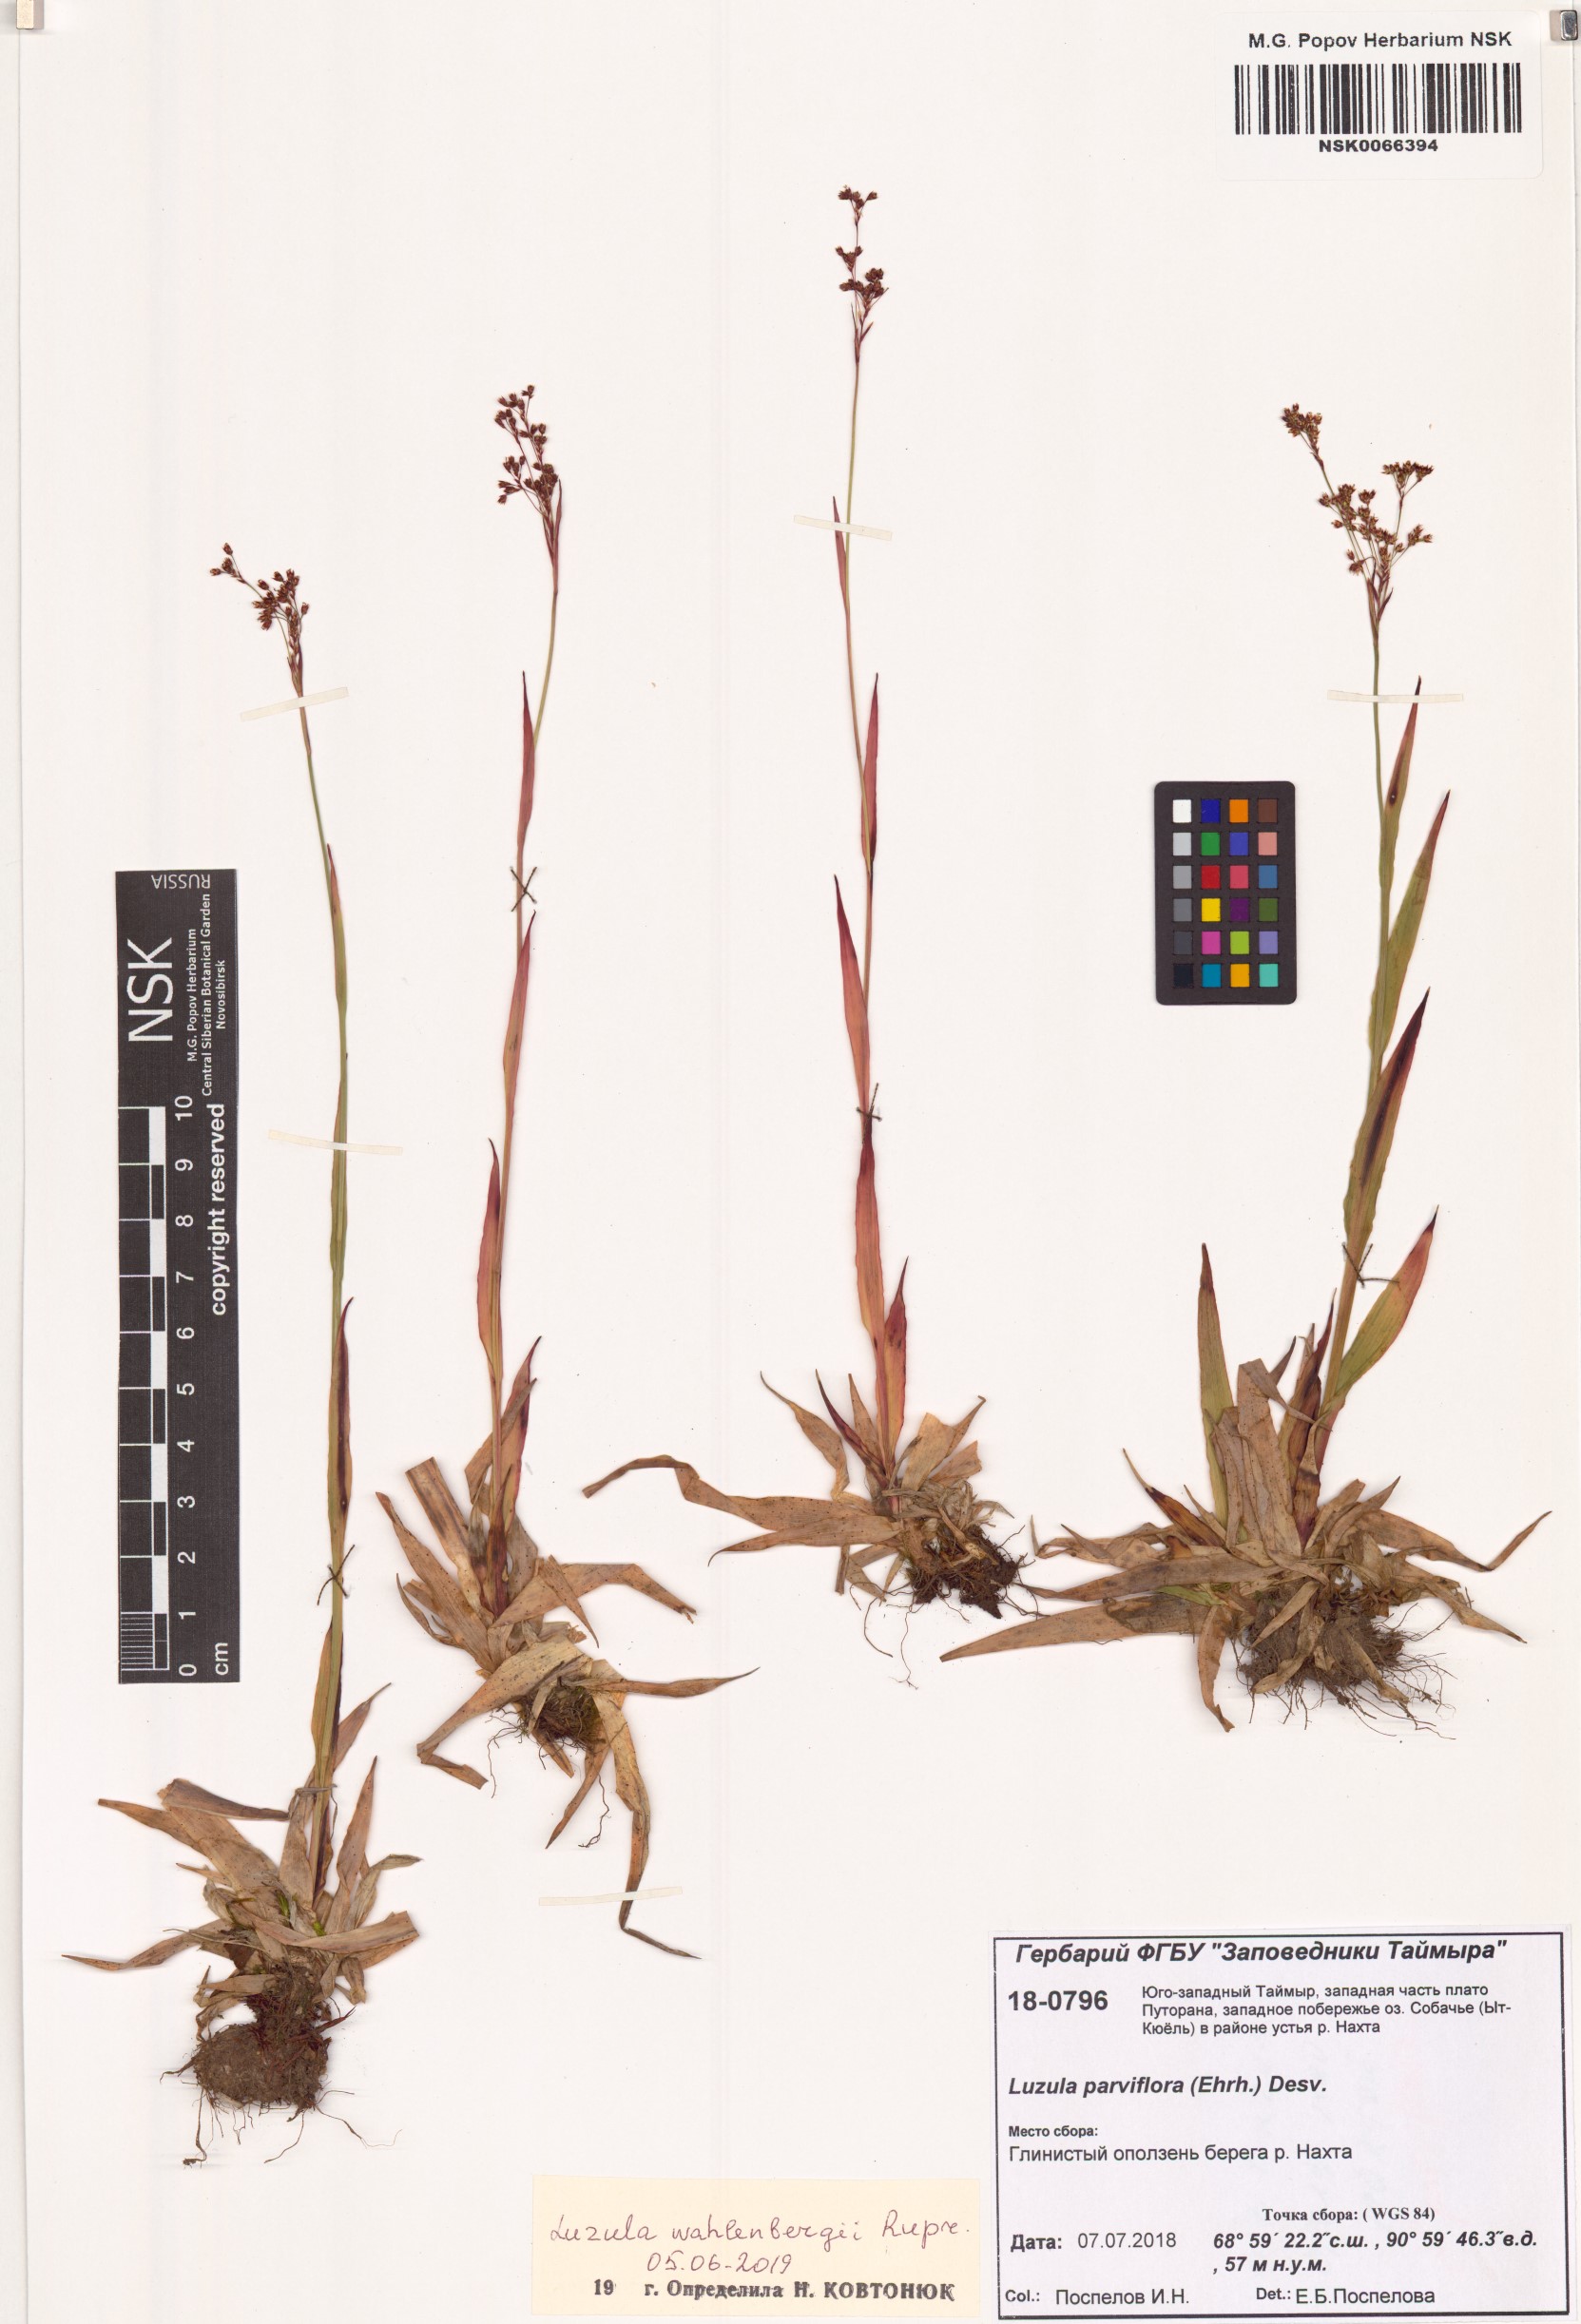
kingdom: Plantae
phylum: Tracheophyta
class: Liliopsida
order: Poales
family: Juncaceae
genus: Luzula
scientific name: Luzula wahlenbergii
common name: Wahlenberg's wood-rush
